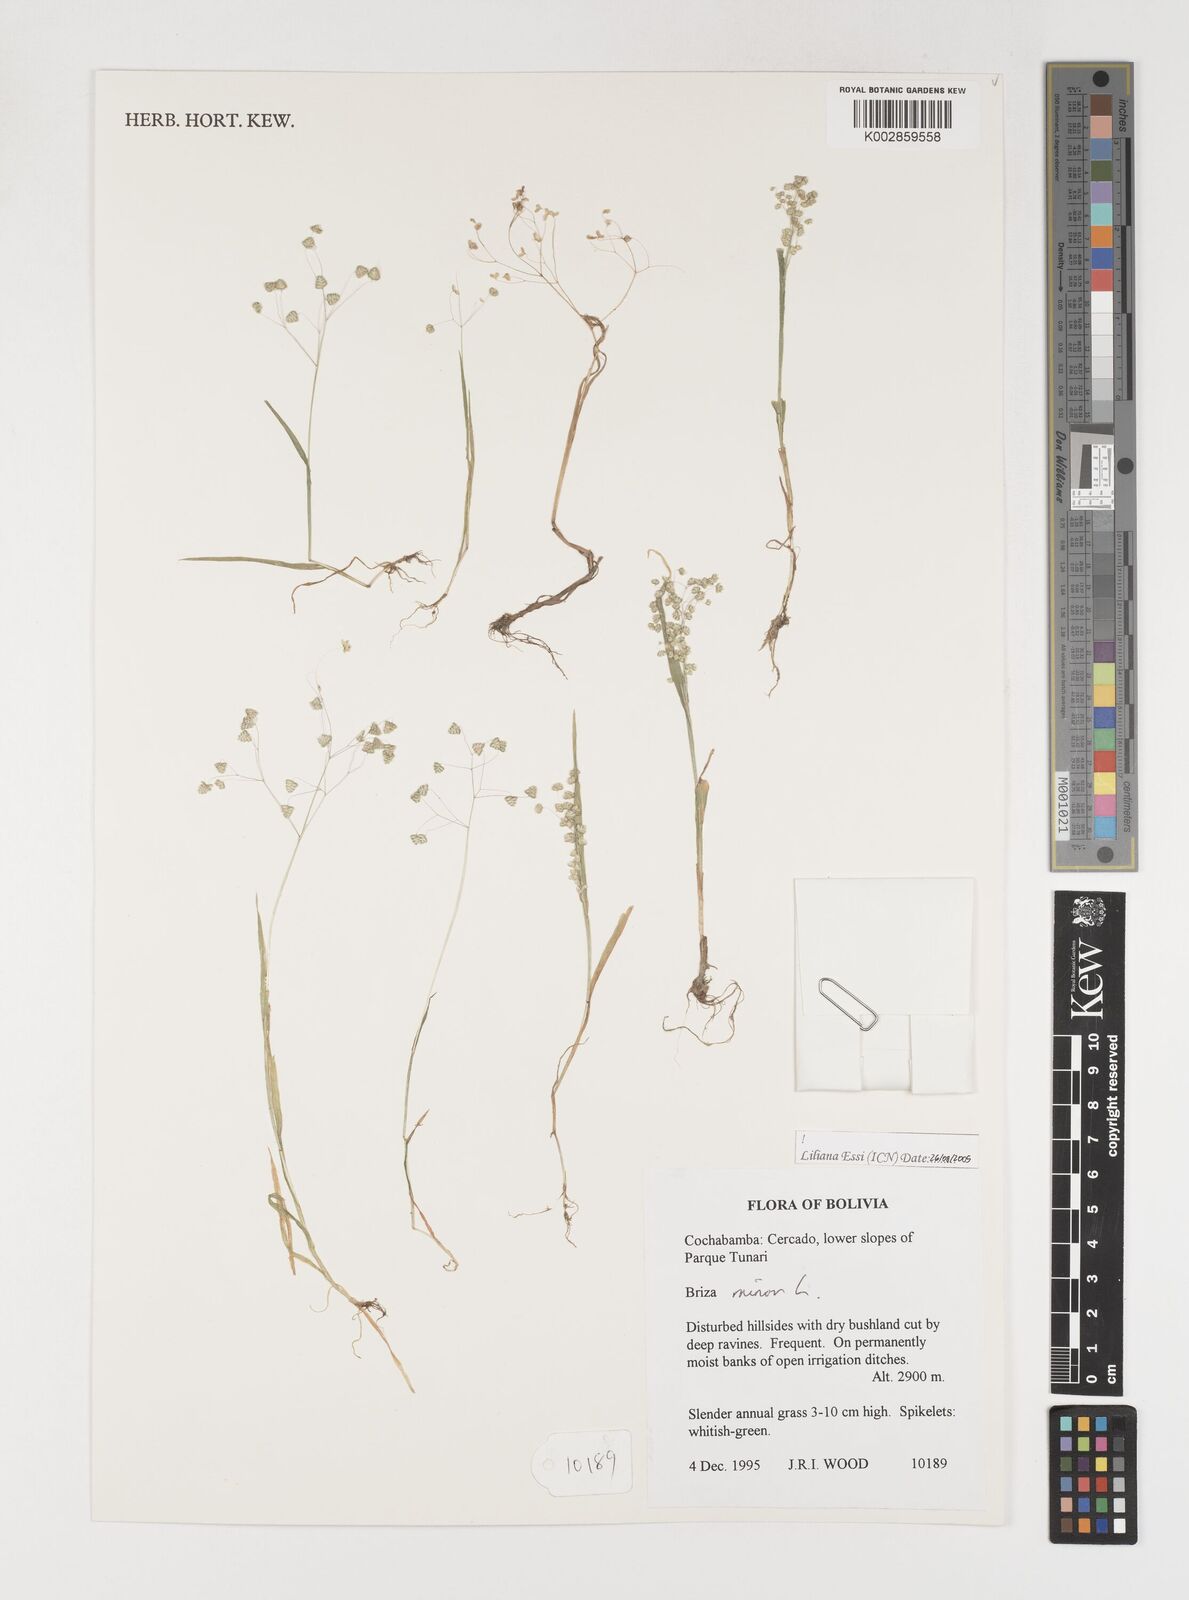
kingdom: Plantae
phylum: Tracheophyta
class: Liliopsida
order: Poales
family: Poaceae
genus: Briza
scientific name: Briza minor
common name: Lesser quaking-grass
